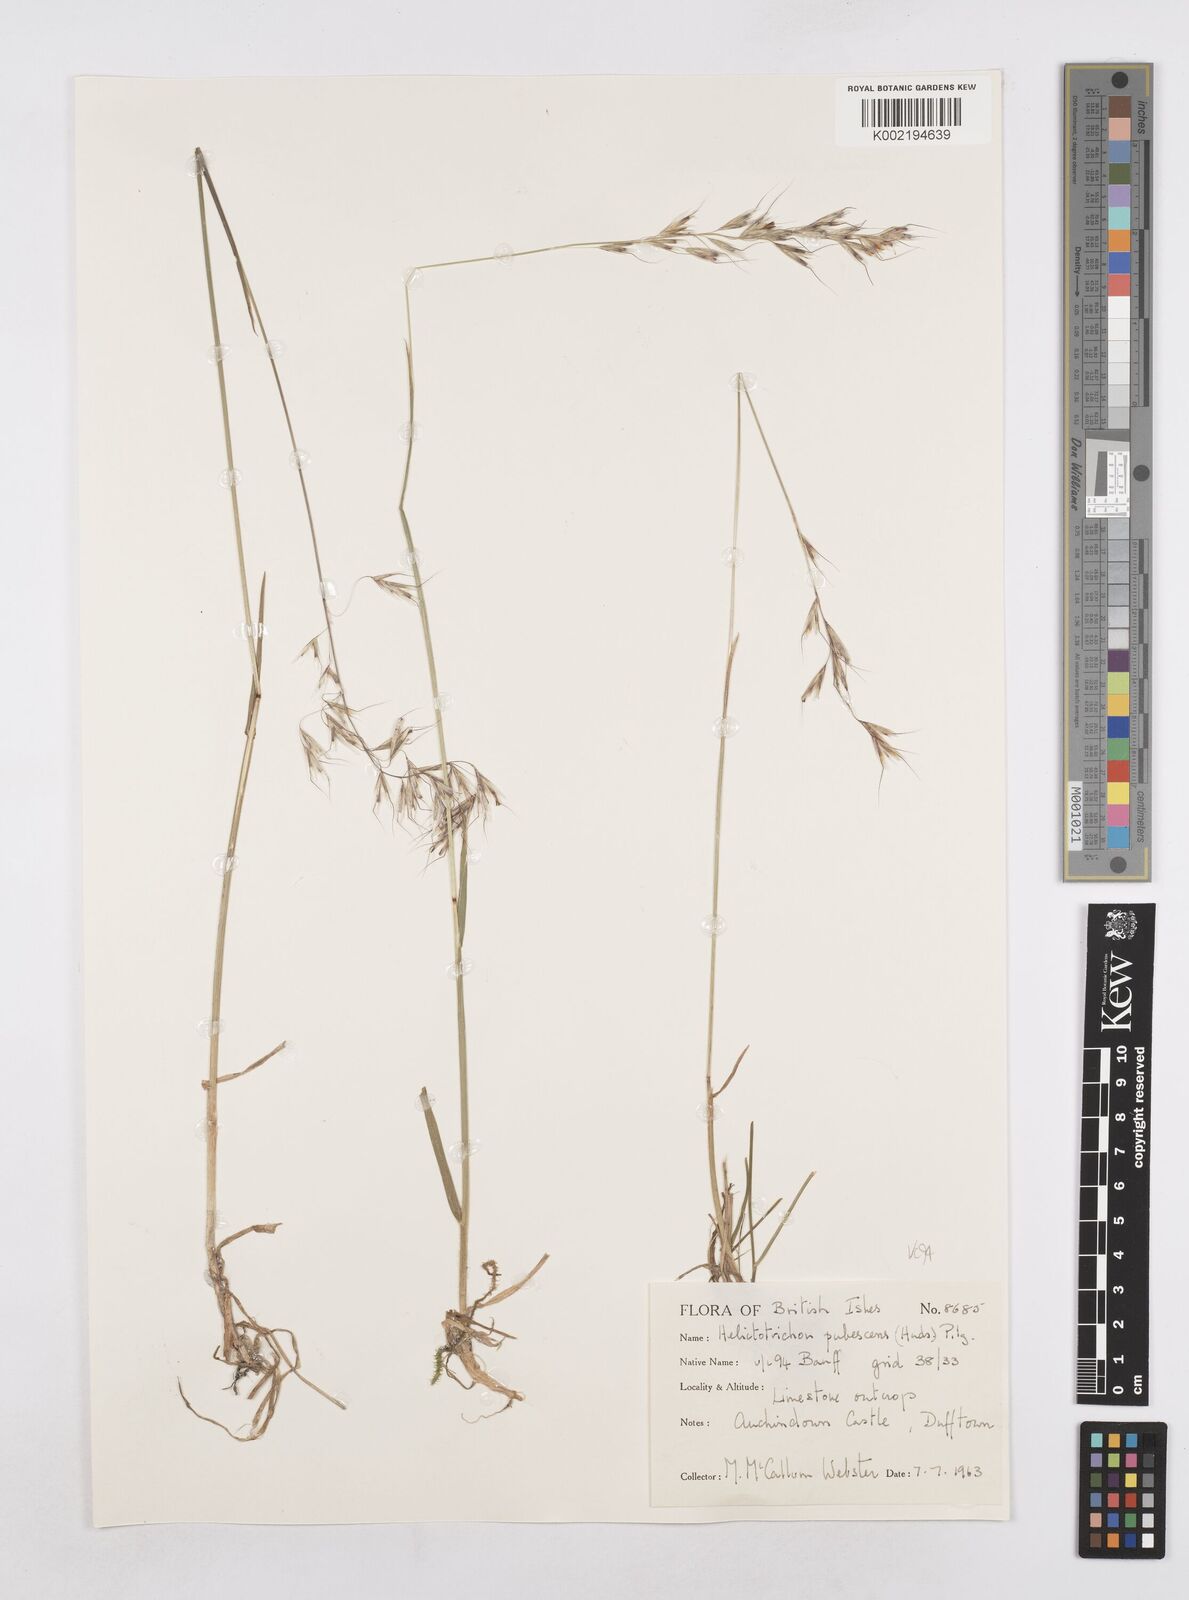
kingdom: Plantae
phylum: Tracheophyta
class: Liliopsida
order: Poales
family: Poaceae
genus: Avenula
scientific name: Avenula pubescens
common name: Downy alpine oatgrass
